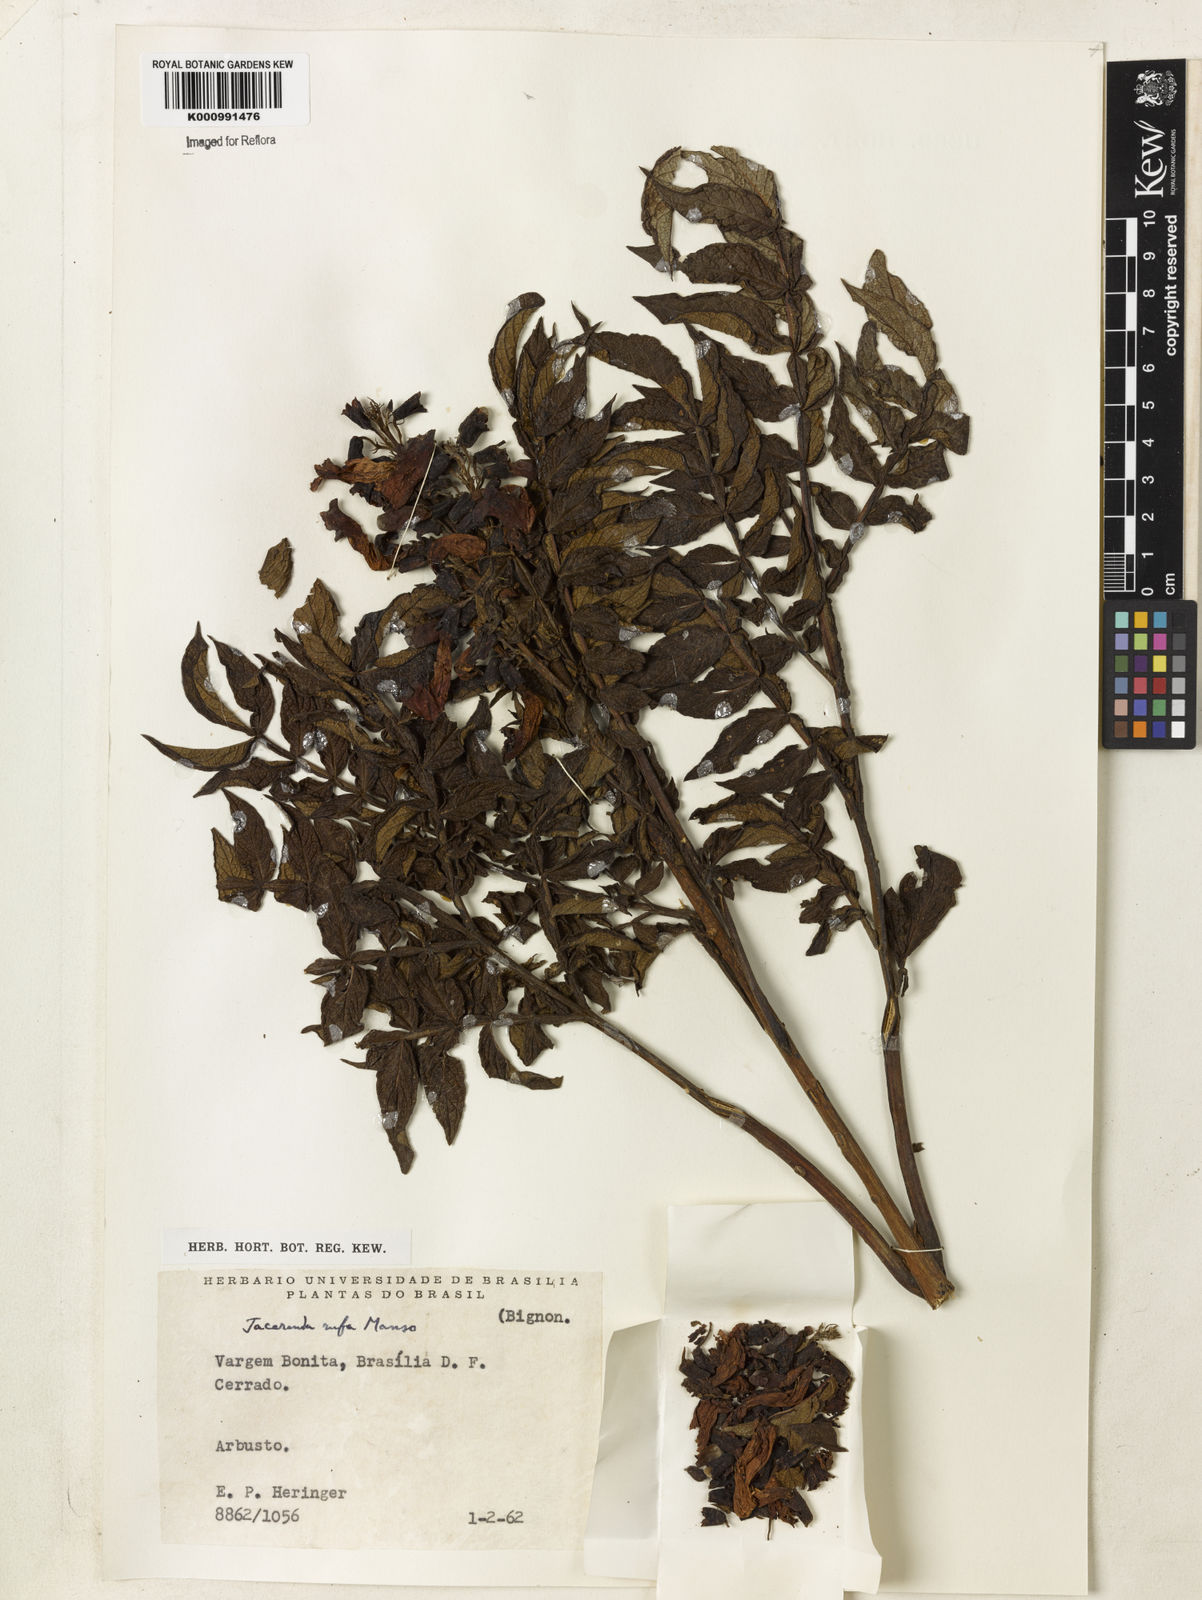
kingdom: Plantae
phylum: Tracheophyta
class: Magnoliopsida
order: Lamiales
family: Bignoniaceae
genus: Jacaranda
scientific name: Jacaranda rufa
